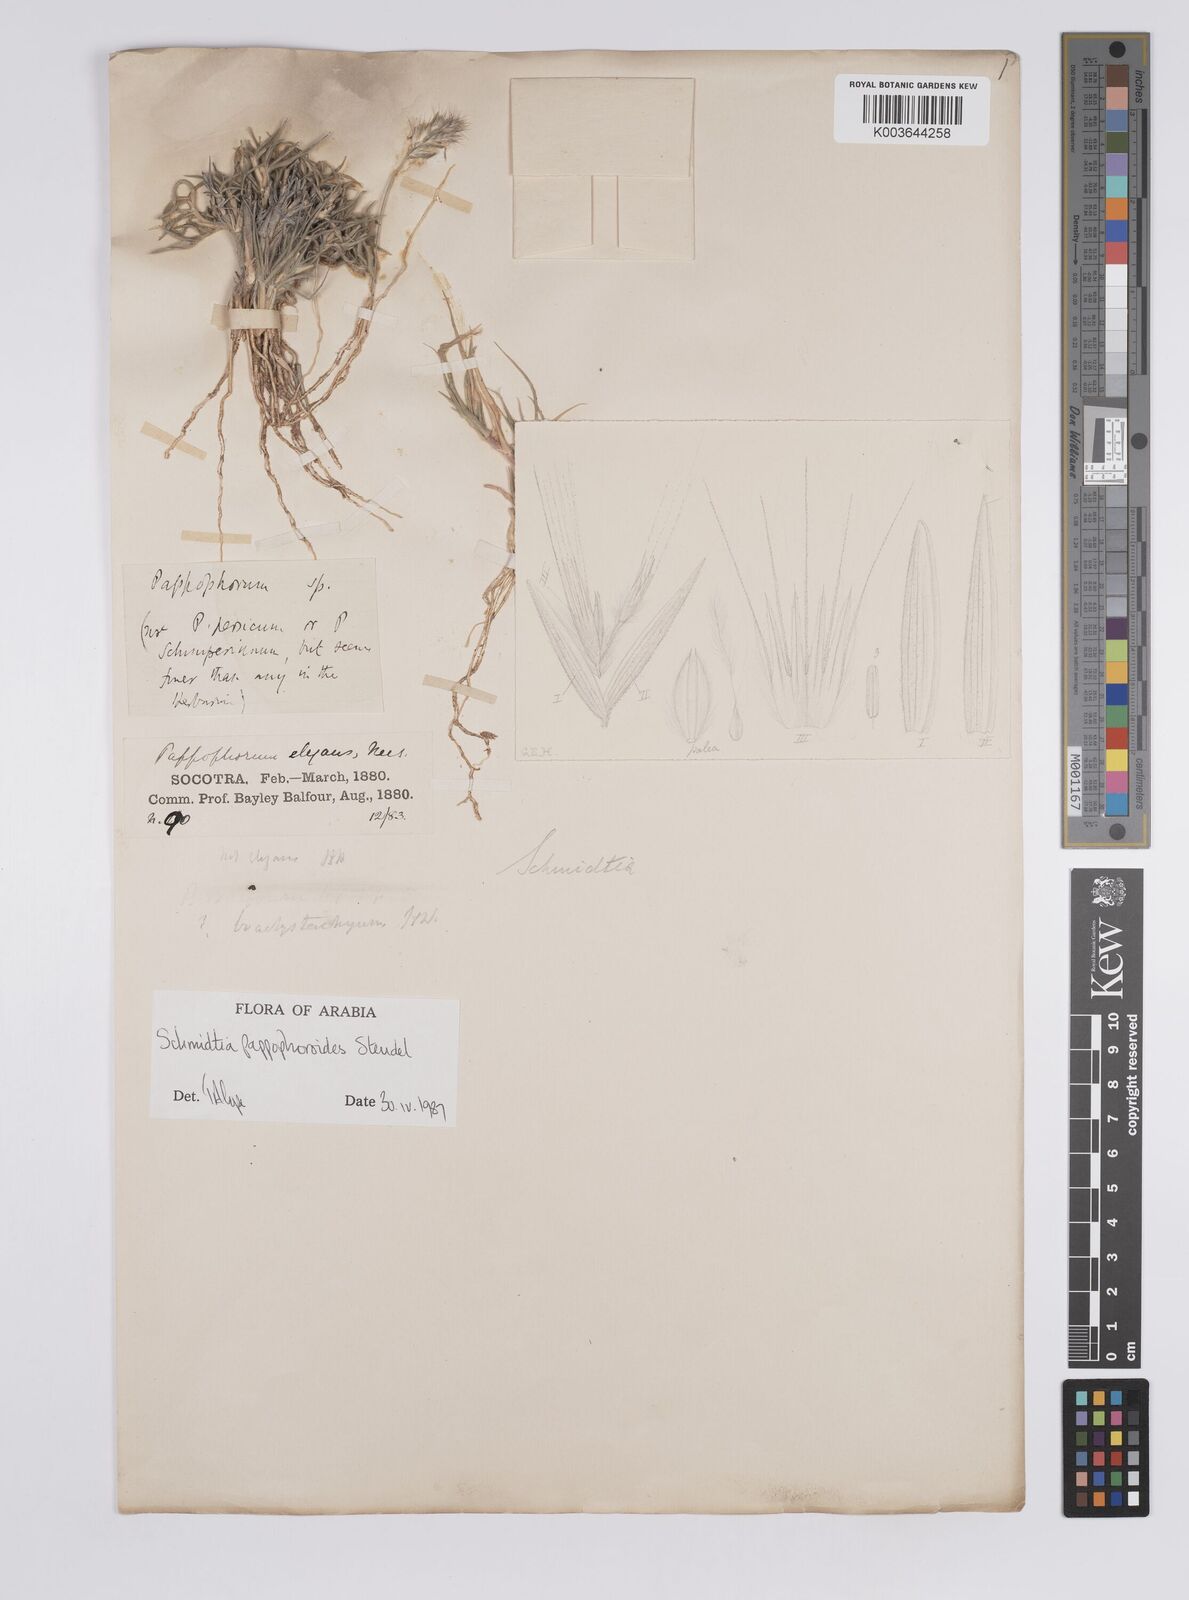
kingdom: Plantae
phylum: Tracheophyta
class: Liliopsida
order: Poales
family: Poaceae
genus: Schmidtia
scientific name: Schmidtia pappophoroides
